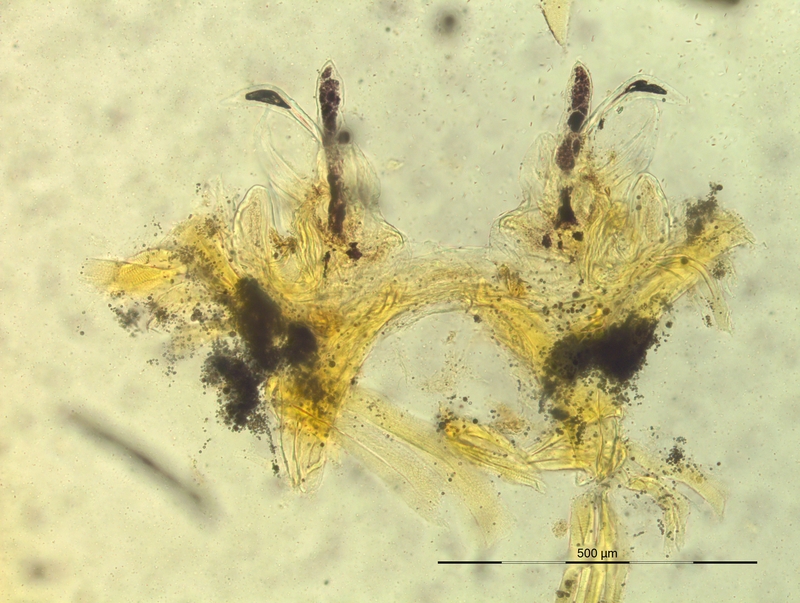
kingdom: Animalia
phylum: Arthropoda
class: Diplopoda
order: Chordeumatida
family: Craspedosomatidae
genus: Oxydactylon
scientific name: Oxydactylon apenninorum
